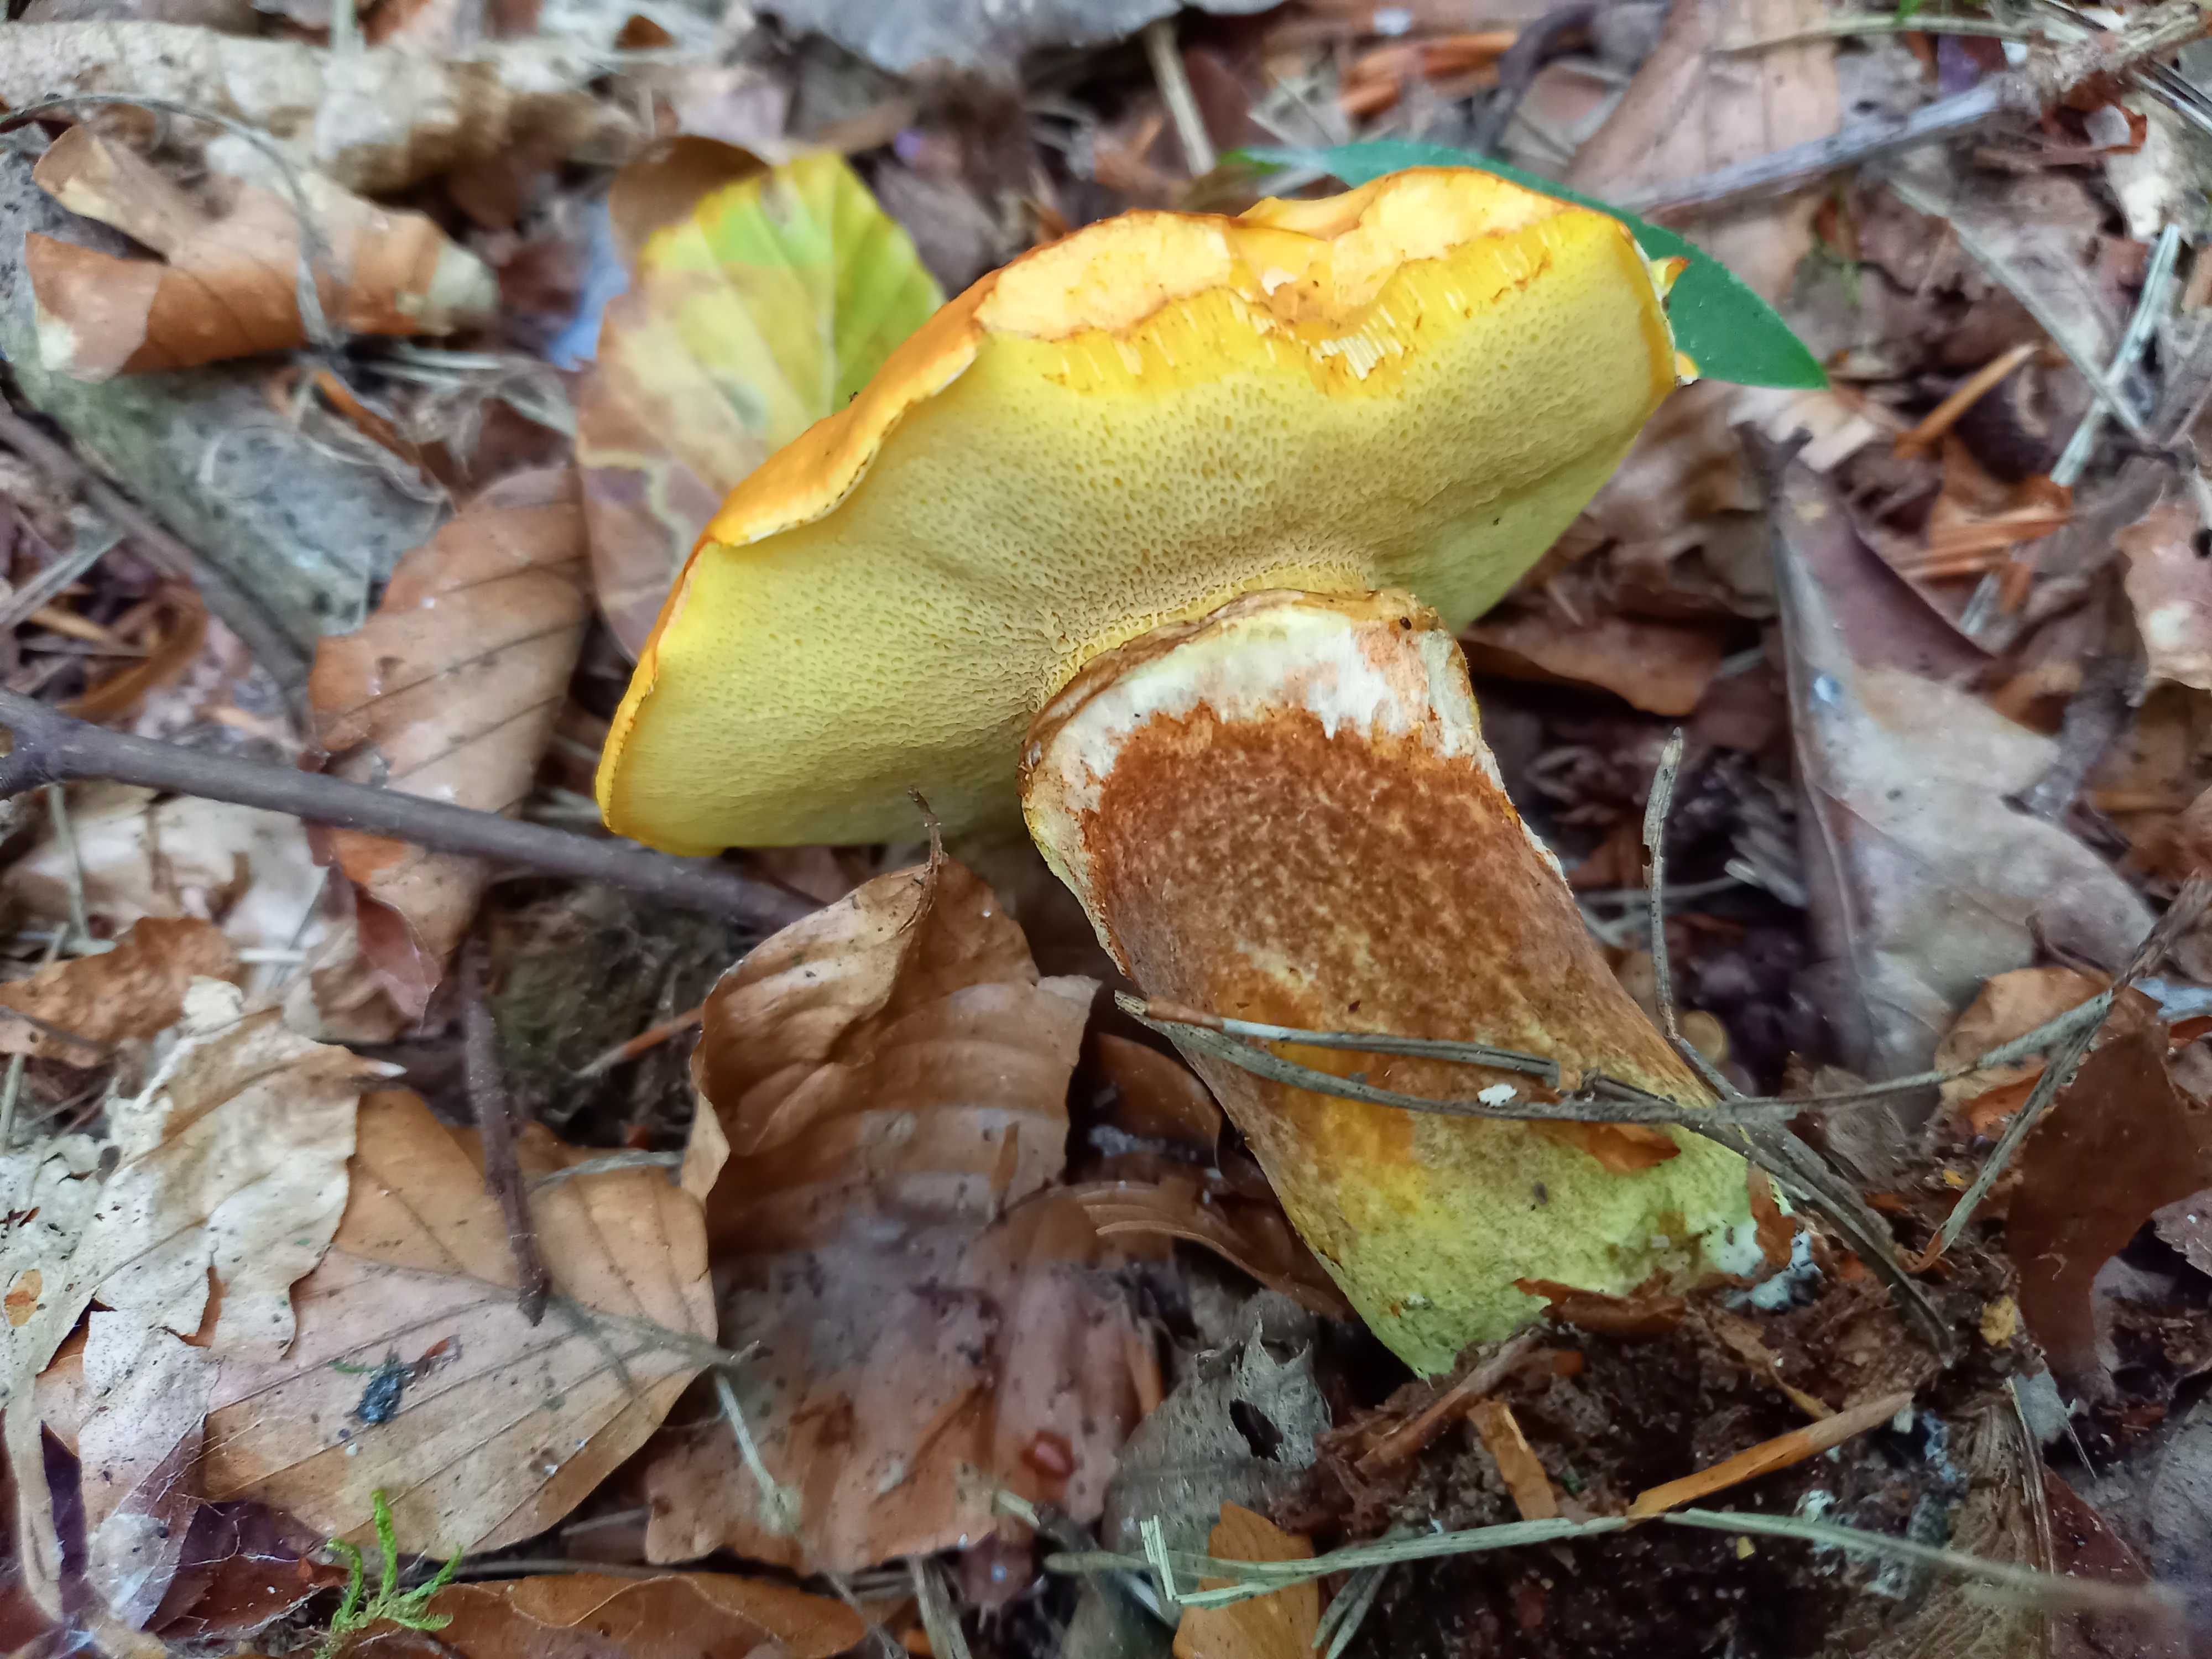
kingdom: Fungi
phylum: Basidiomycota
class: Agaricomycetes
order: Boletales
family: Suillaceae
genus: Suillus
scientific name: Suillus grevillei
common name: lærke-slimrørhat
